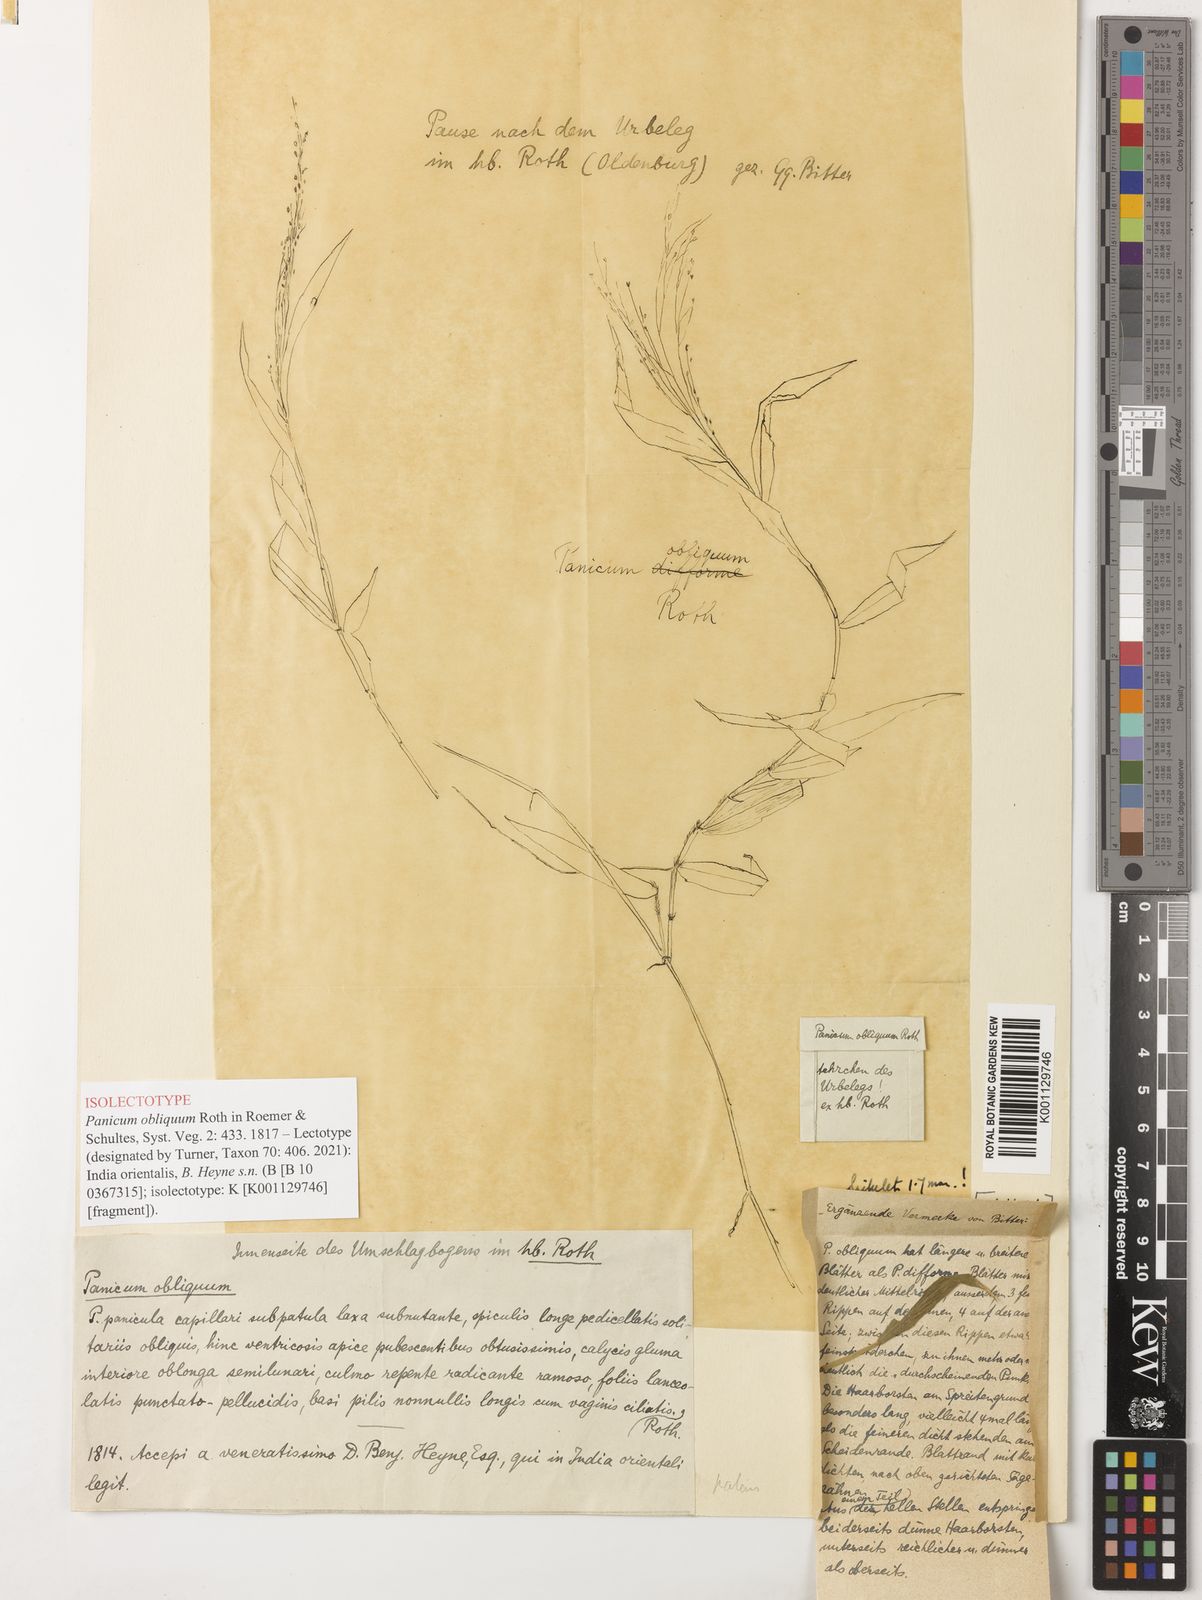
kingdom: Plantae
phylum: Tracheophyta
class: Liliopsida
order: Poales
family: Poaceae
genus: Cyrtococcum
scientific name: Cyrtococcum patens
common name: Broad-leaved bowgrass
